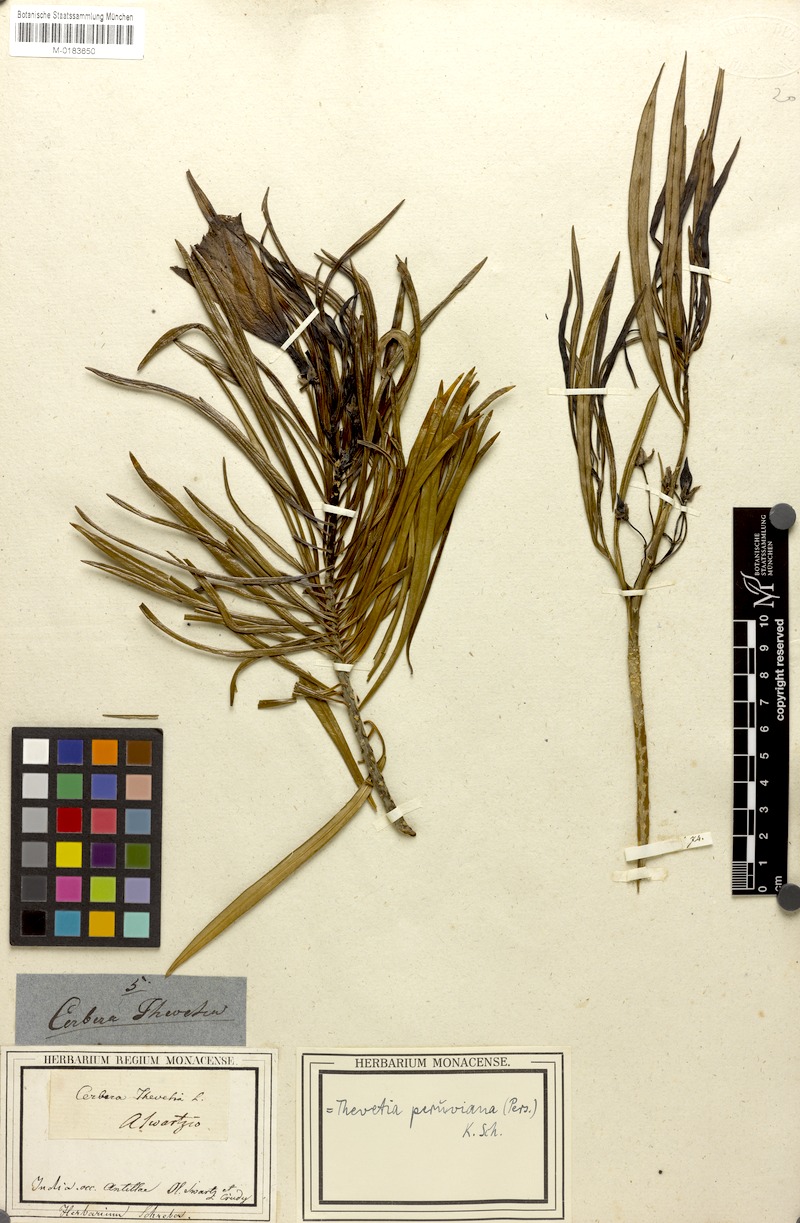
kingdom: Plantae
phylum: Tracheophyta
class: Magnoliopsida
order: Gentianales
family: Apocynaceae
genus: Cascabela
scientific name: Cascabela thevetia
